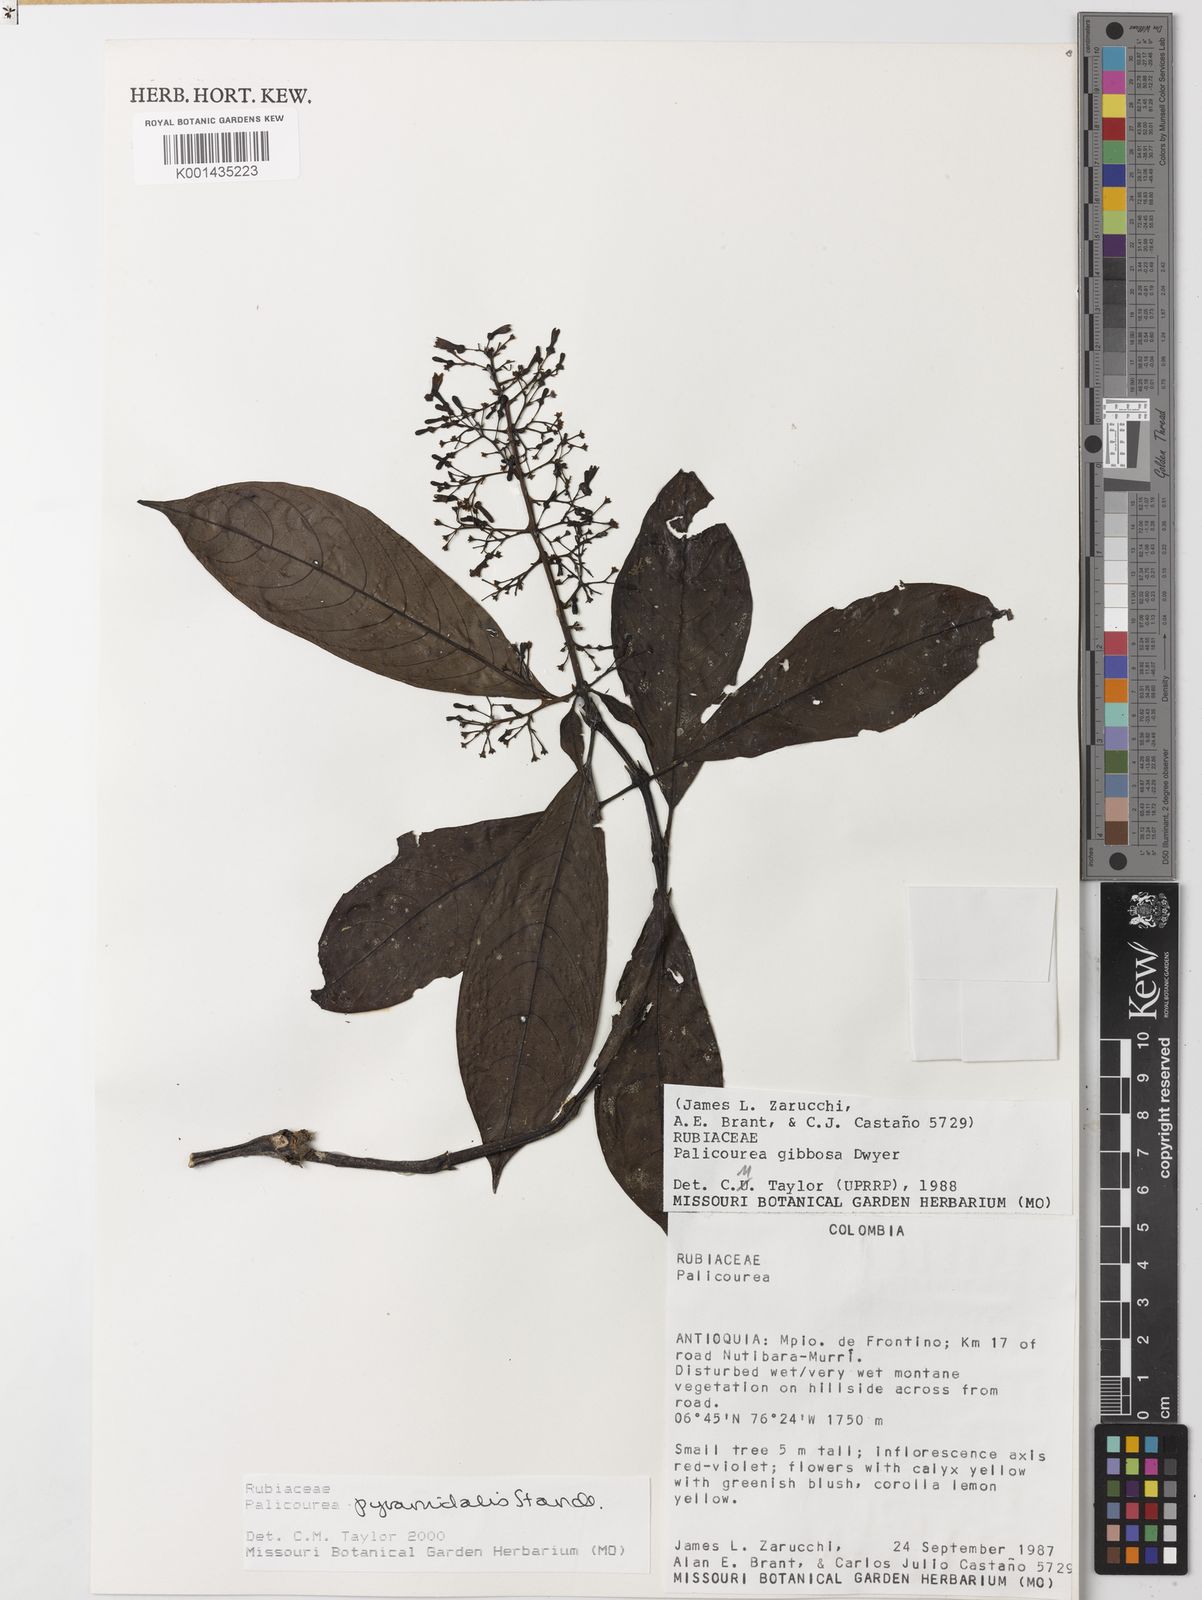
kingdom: Plantae
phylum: Tracheophyta
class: Magnoliopsida
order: Gentianales
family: Rubiaceae
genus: Palicourea
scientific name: Palicourea pyramidalis
